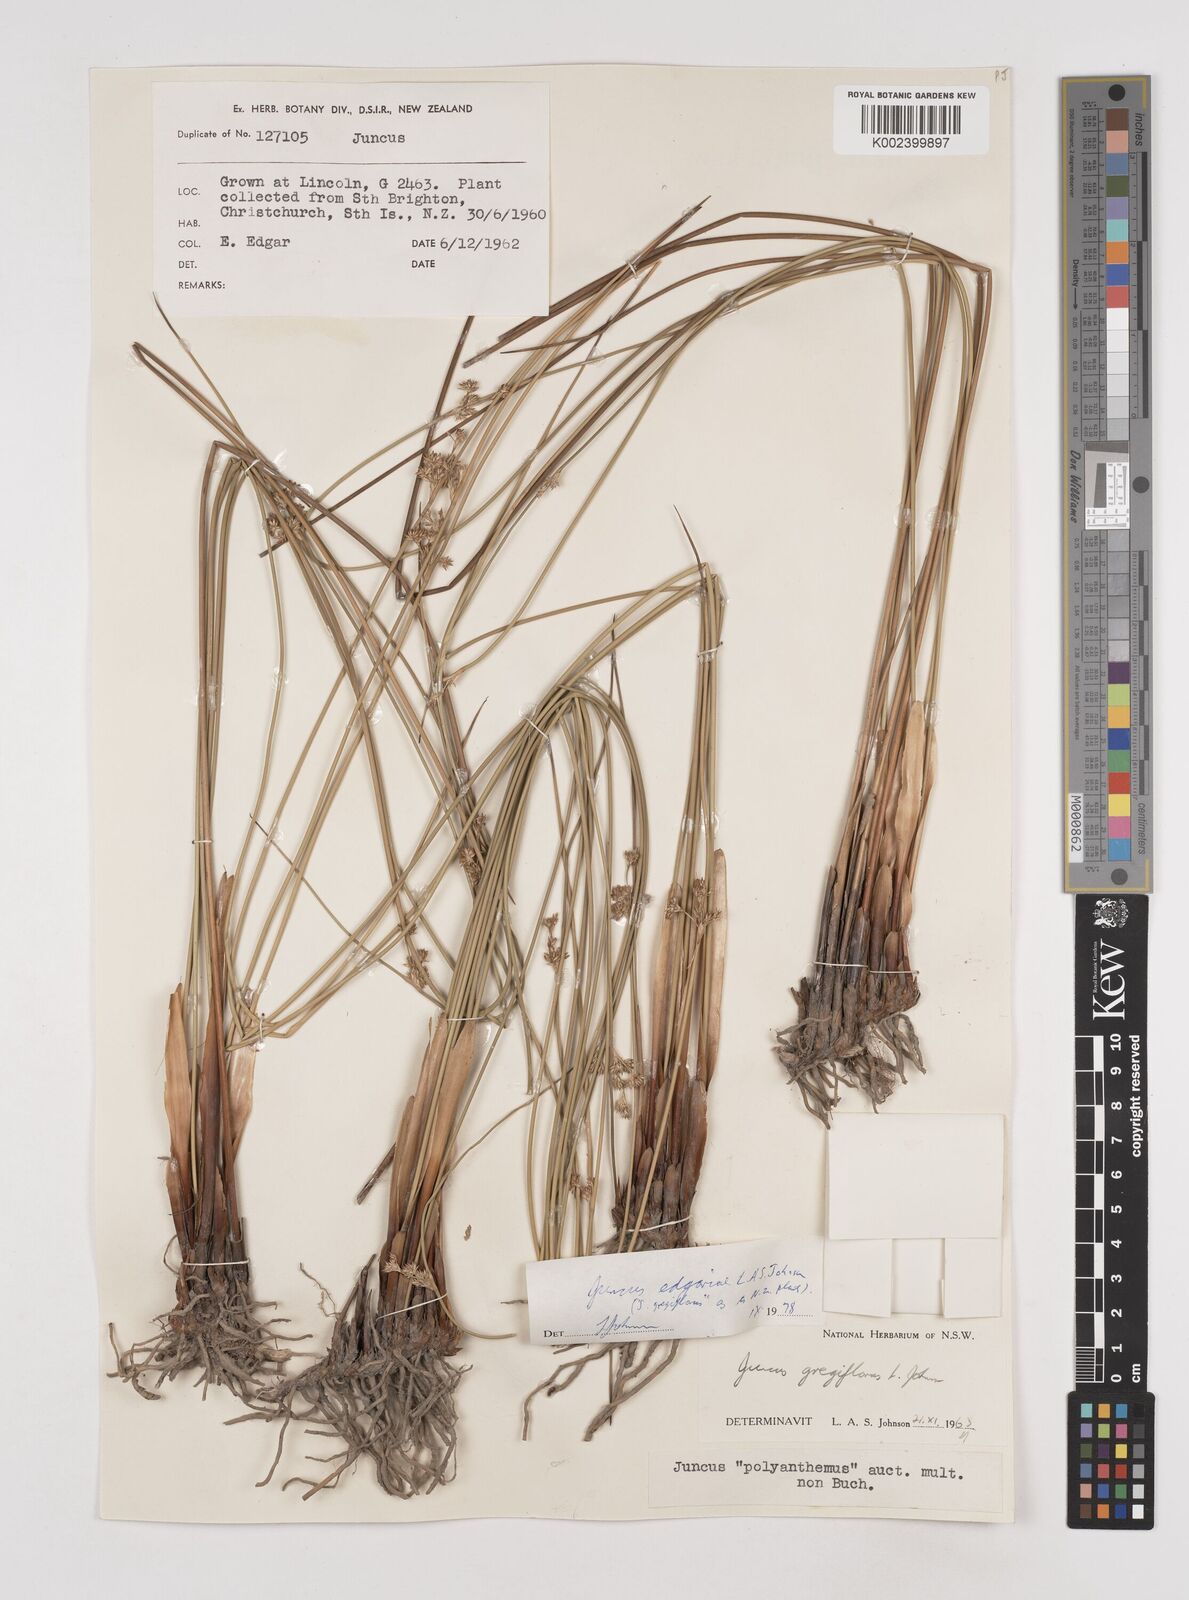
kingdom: Plantae
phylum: Tracheophyta
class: Liliopsida
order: Poales
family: Juncaceae
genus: Juncus
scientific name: Juncus edgariae
